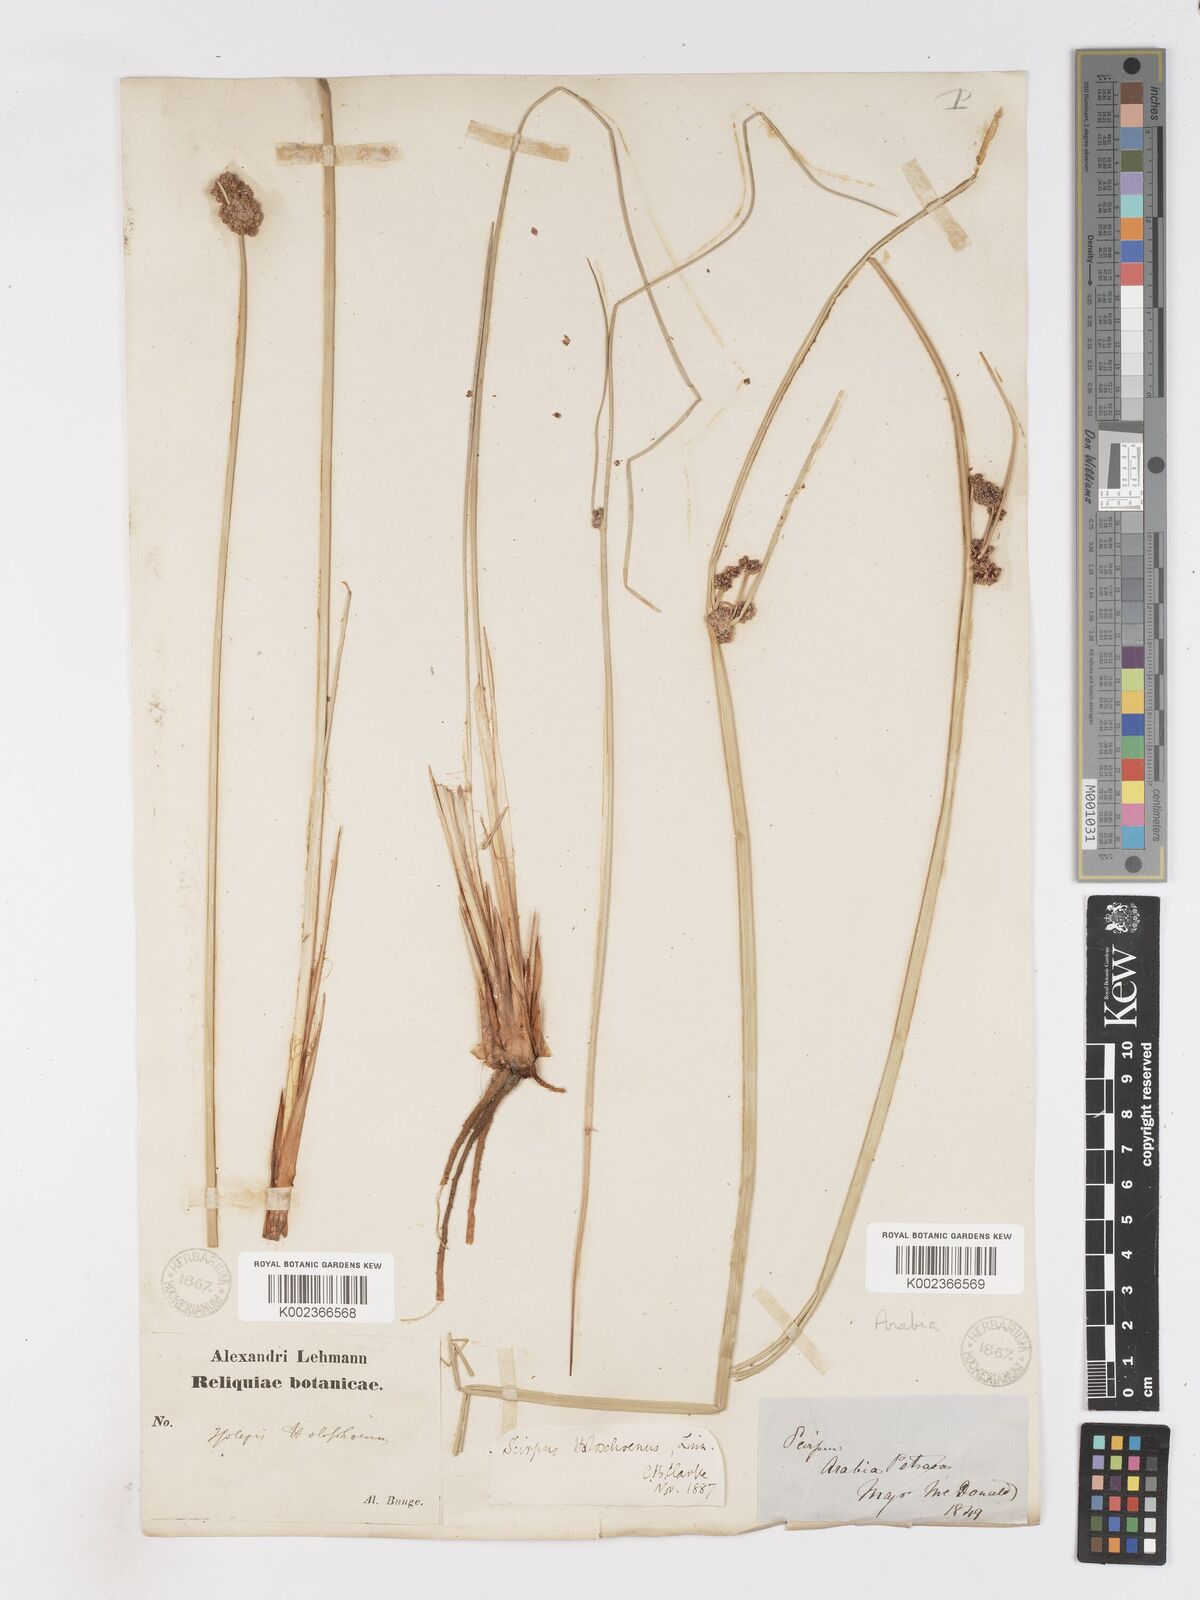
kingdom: Plantae
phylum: Tracheophyta
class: Liliopsida
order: Poales
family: Cyperaceae
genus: Scirpoides
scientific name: Scirpoides holoschoenus
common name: Round-headed club-rush
